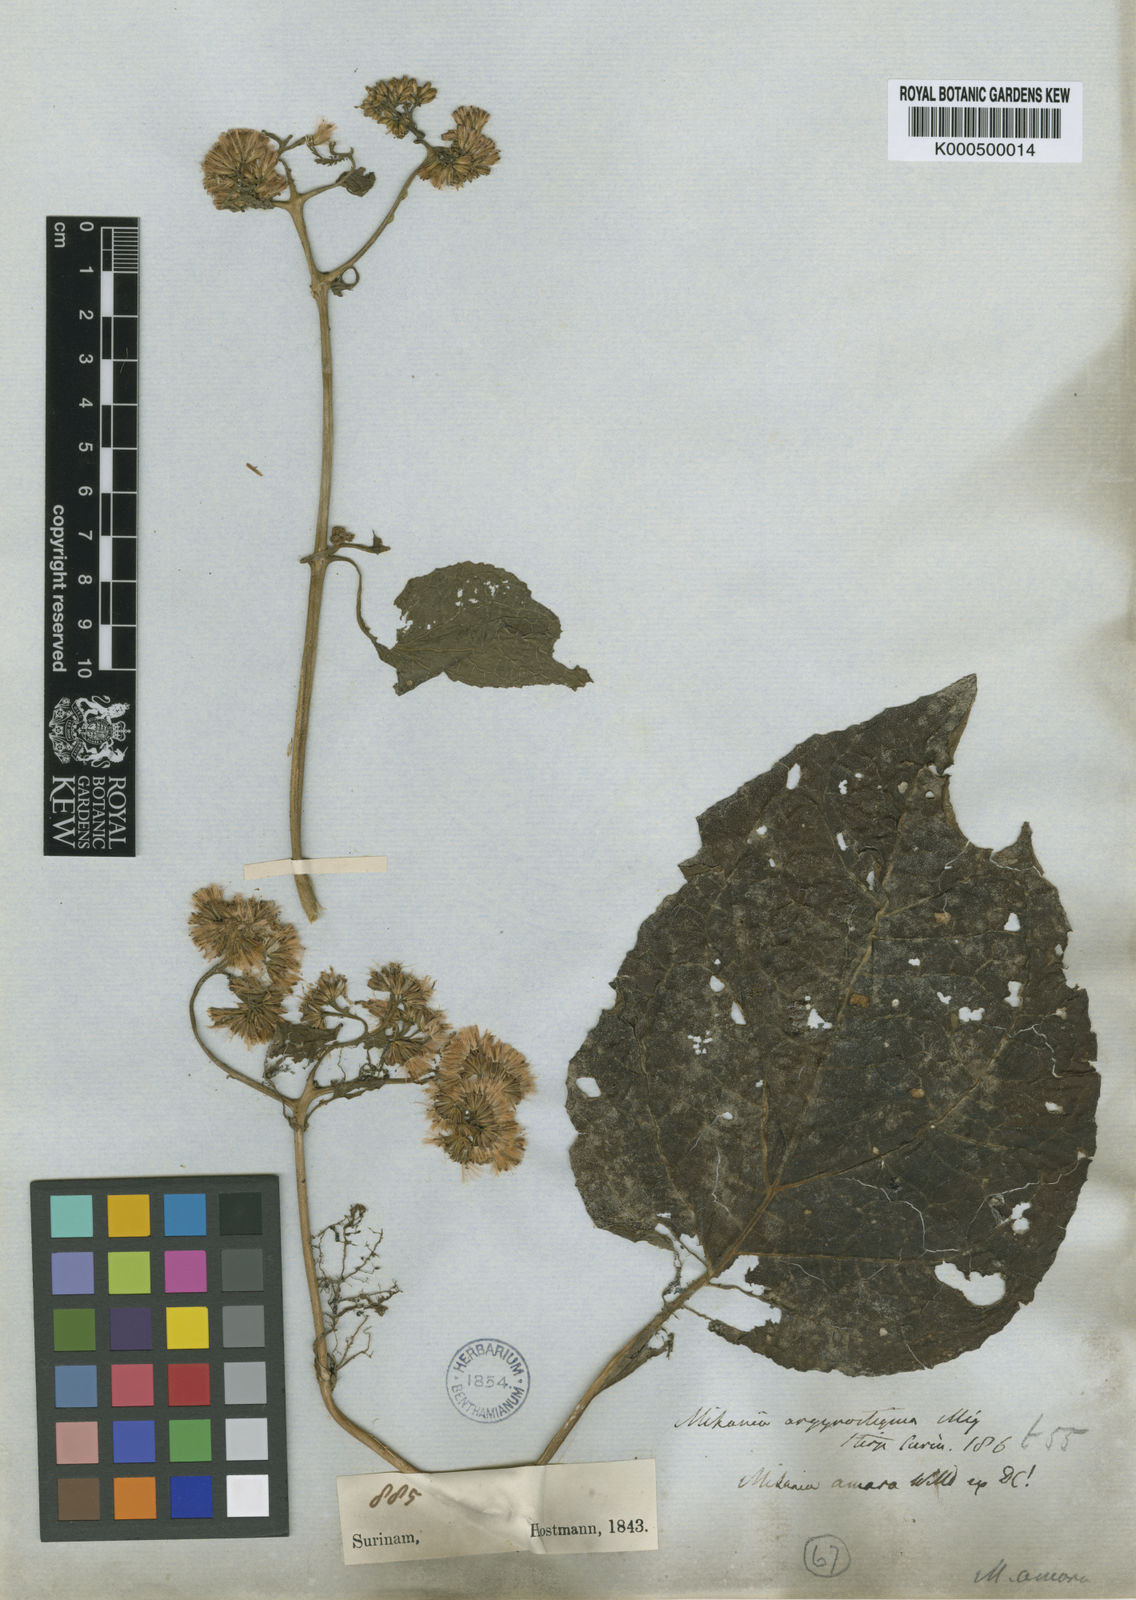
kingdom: Plantae
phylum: Tracheophyta
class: Magnoliopsida
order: Asterales
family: Asteraceae
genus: Mikania
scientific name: Mikania guaco
